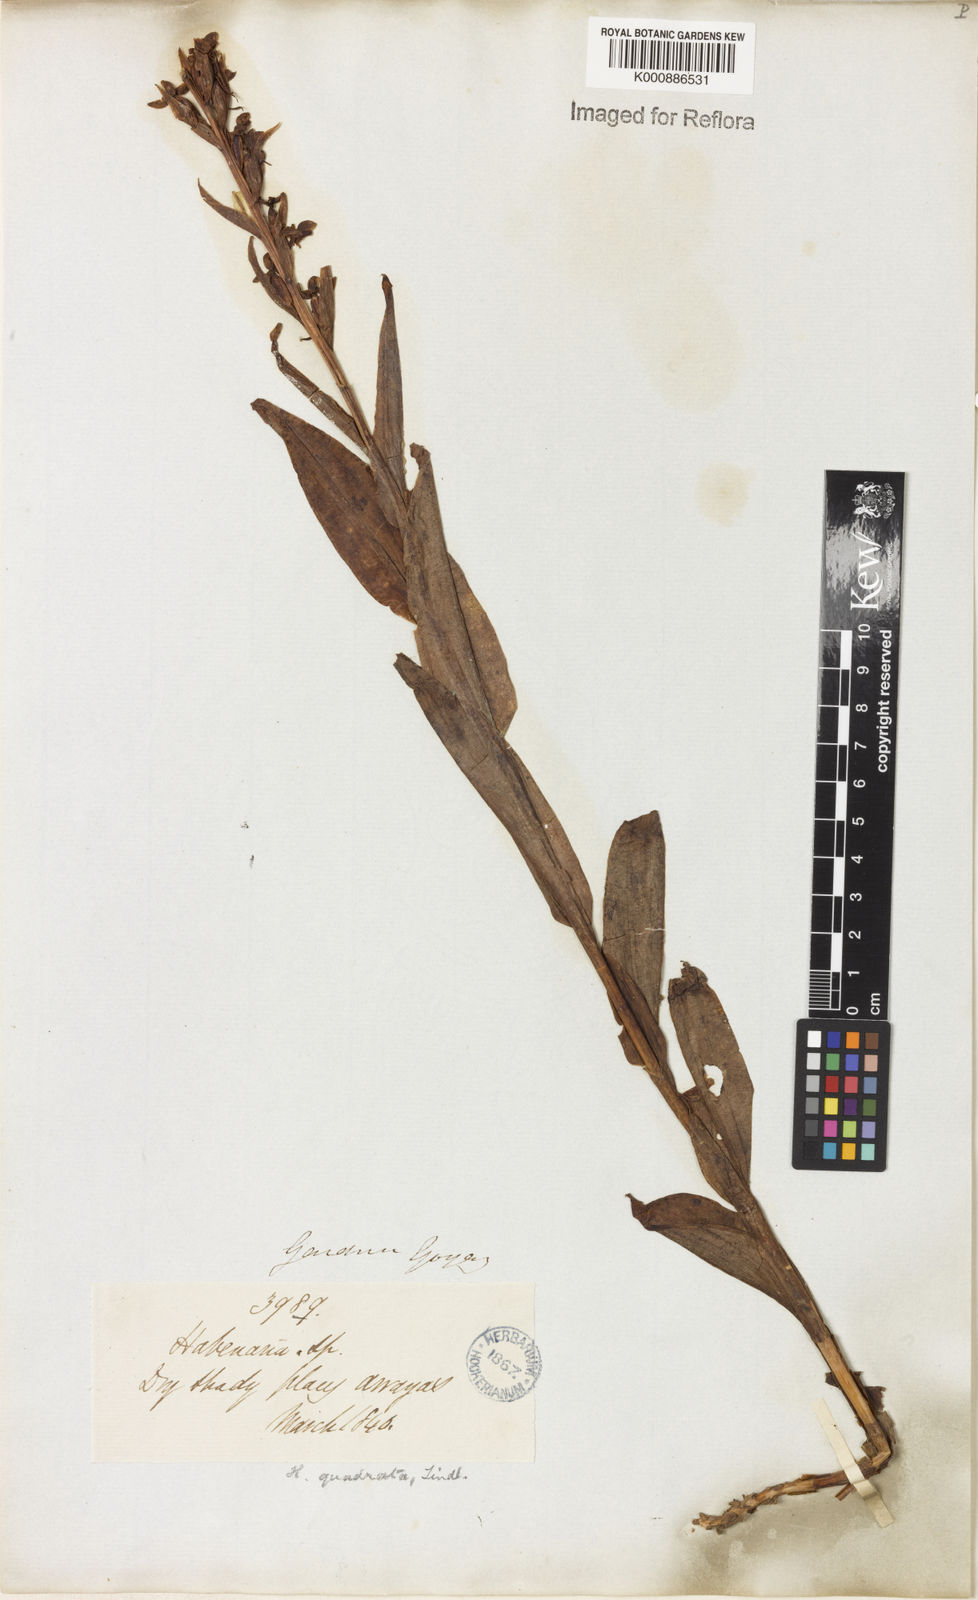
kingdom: Plantae
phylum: Tracheophyta
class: Liliopsida
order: Asparagales
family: Orchidaceae
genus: Habenaria
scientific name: Habenaria quadrata
